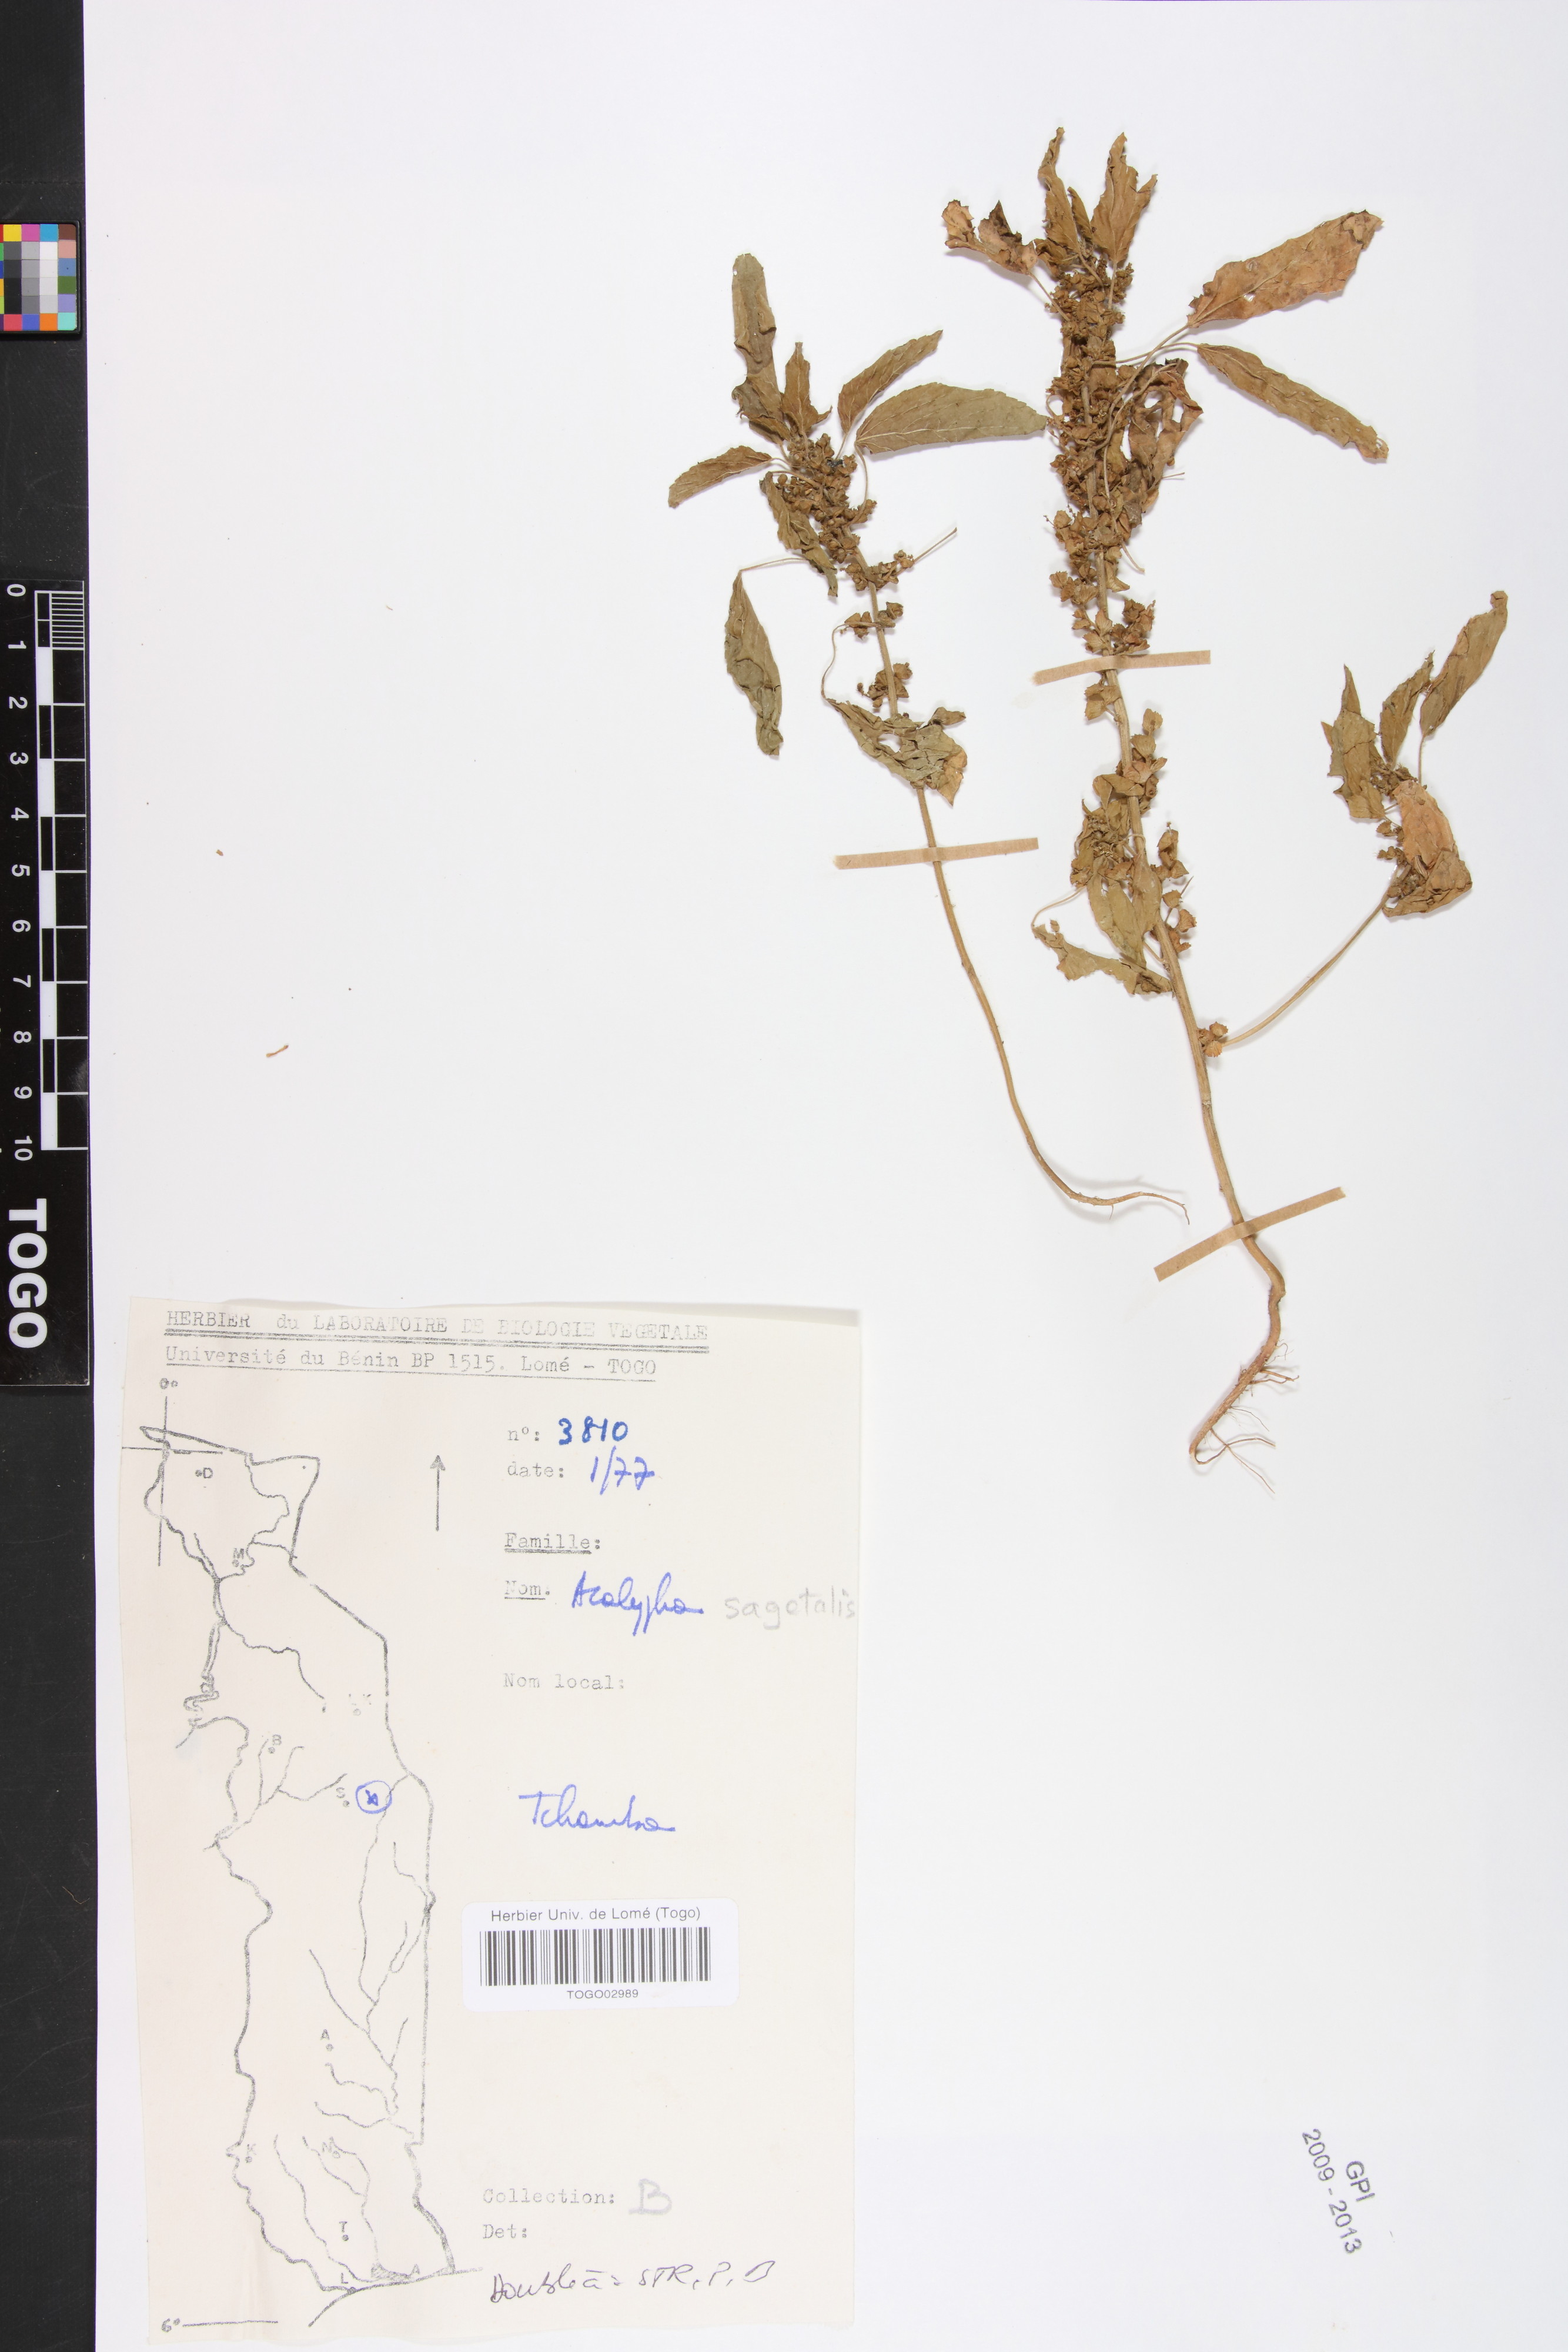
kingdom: Plantae
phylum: Tracheophyta
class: Magnoliopsida
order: Malpighiales
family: Euphorbiaceae
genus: Acalypha
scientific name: Acalypha segetalis
